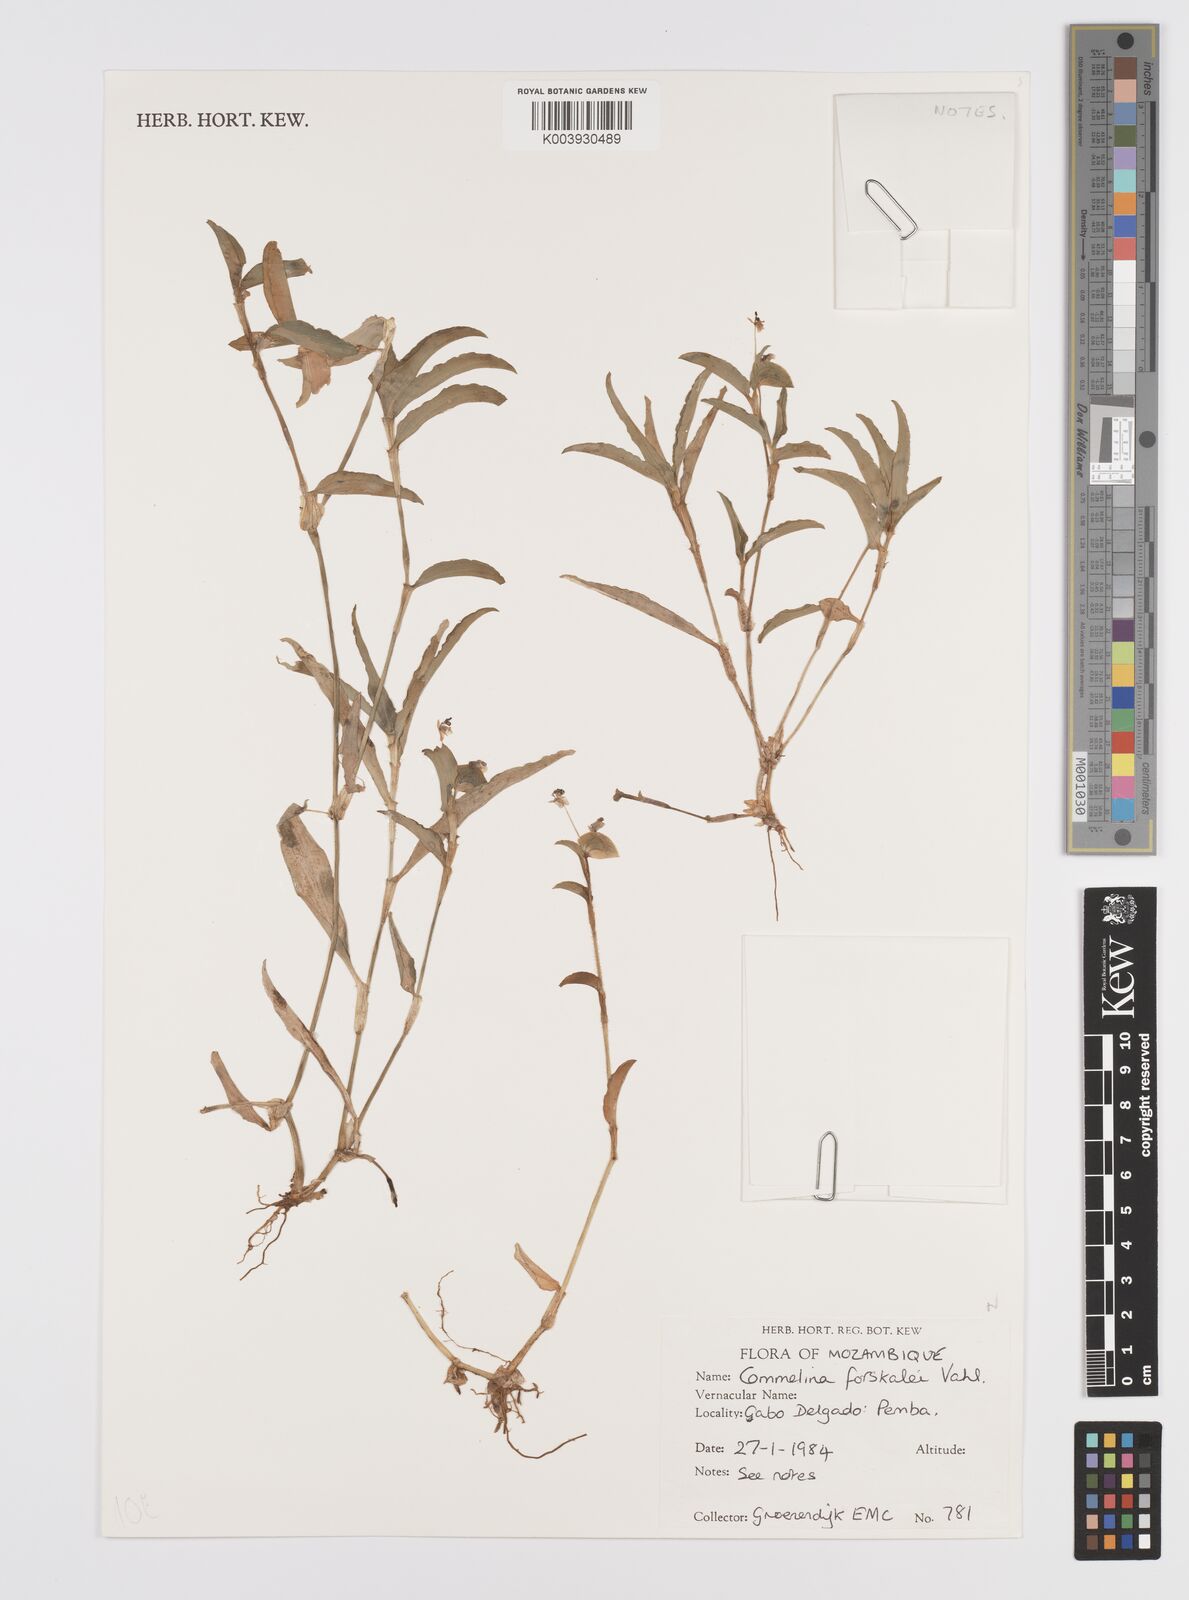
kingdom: Plantae
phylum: Tracheophyta
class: Liliopsida
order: Commelinales
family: Commelinaceae
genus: Commelina
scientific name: Commelina forskaolii
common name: Rat's ear
